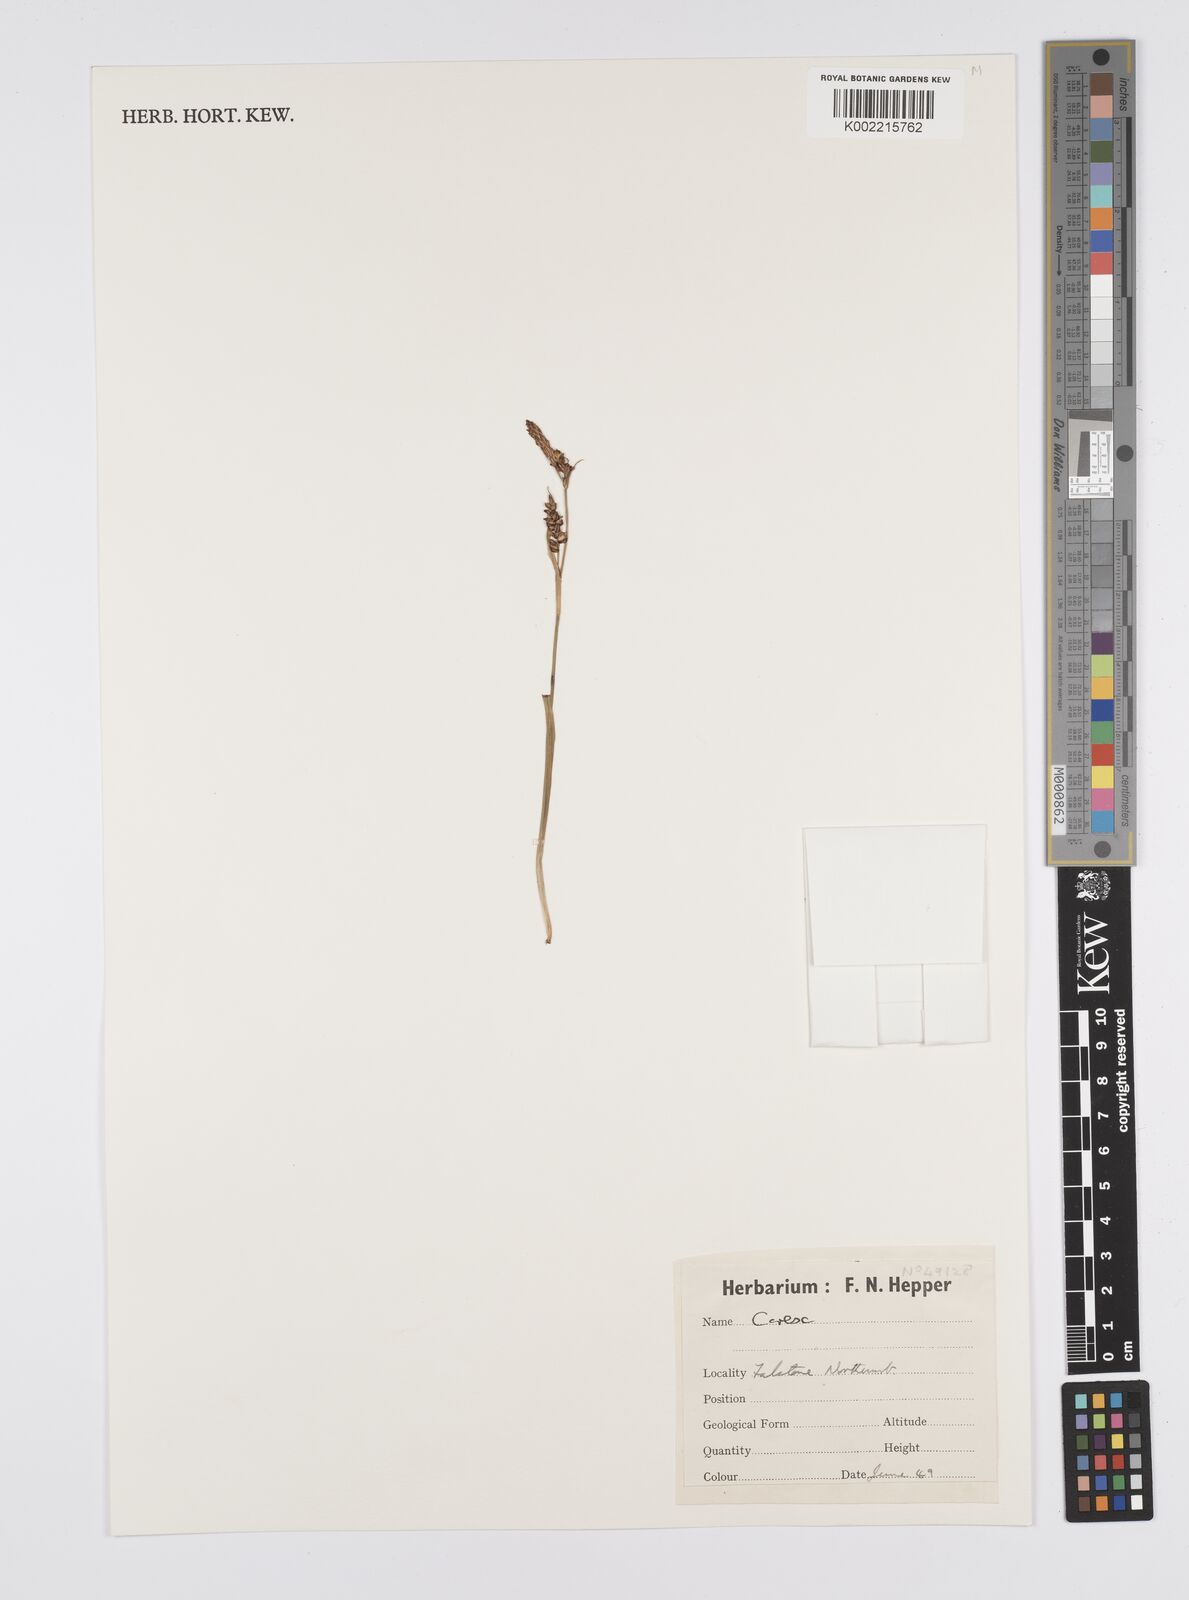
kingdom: Plantae
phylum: Tracheophyta
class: Liliopsida
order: Poales
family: Cyperaceae
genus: Carex
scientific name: Carex
